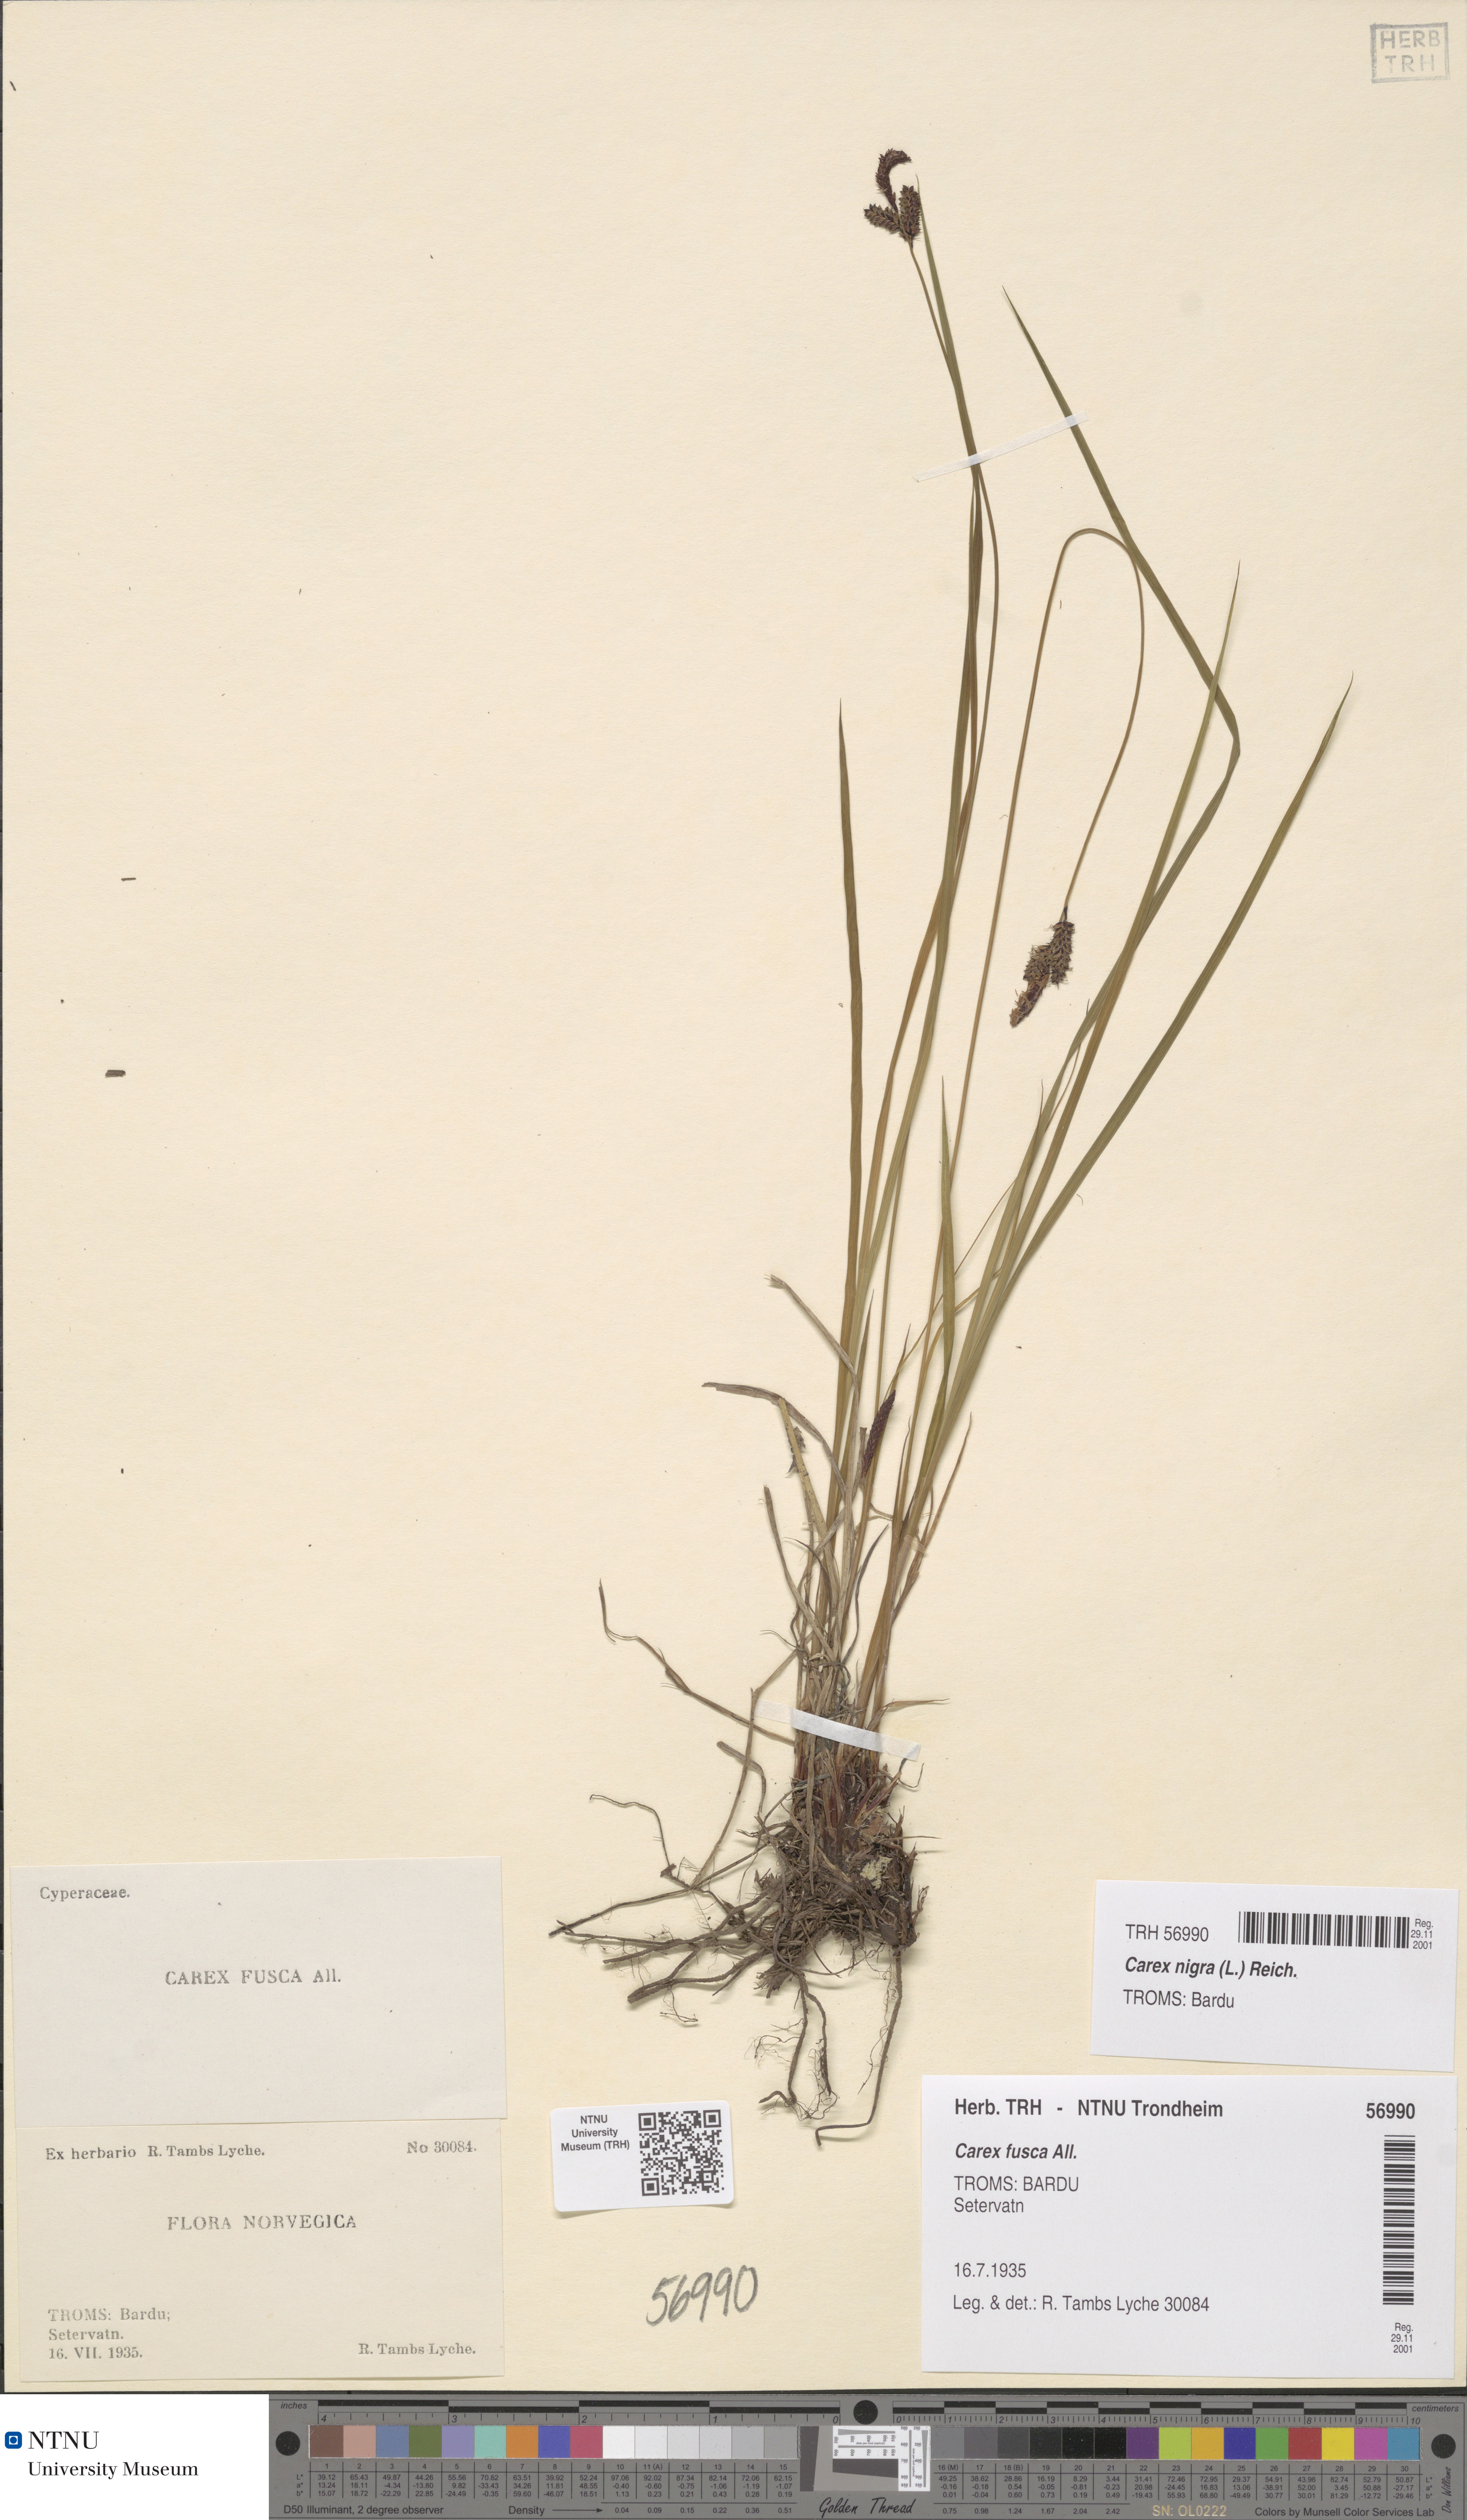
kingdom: Plantae
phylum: Tracheophyta
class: Liliopsida
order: Poales
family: Cyperaceae
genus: Carex
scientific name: Carex nigra
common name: Common sedge
